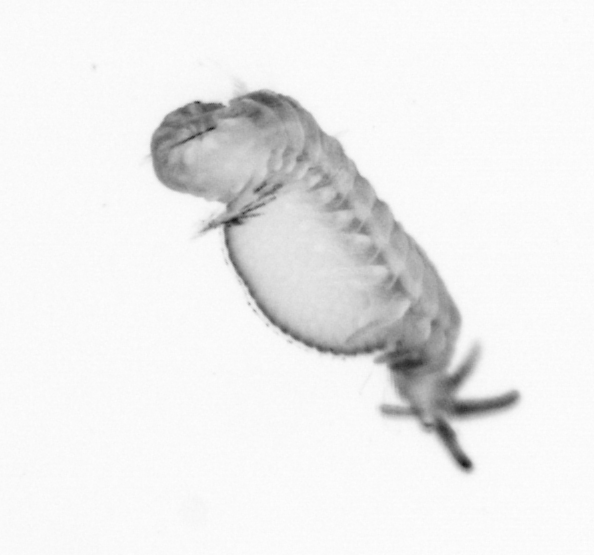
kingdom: Animalia
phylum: Annelida
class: Polychaeta
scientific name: Polychaeta
